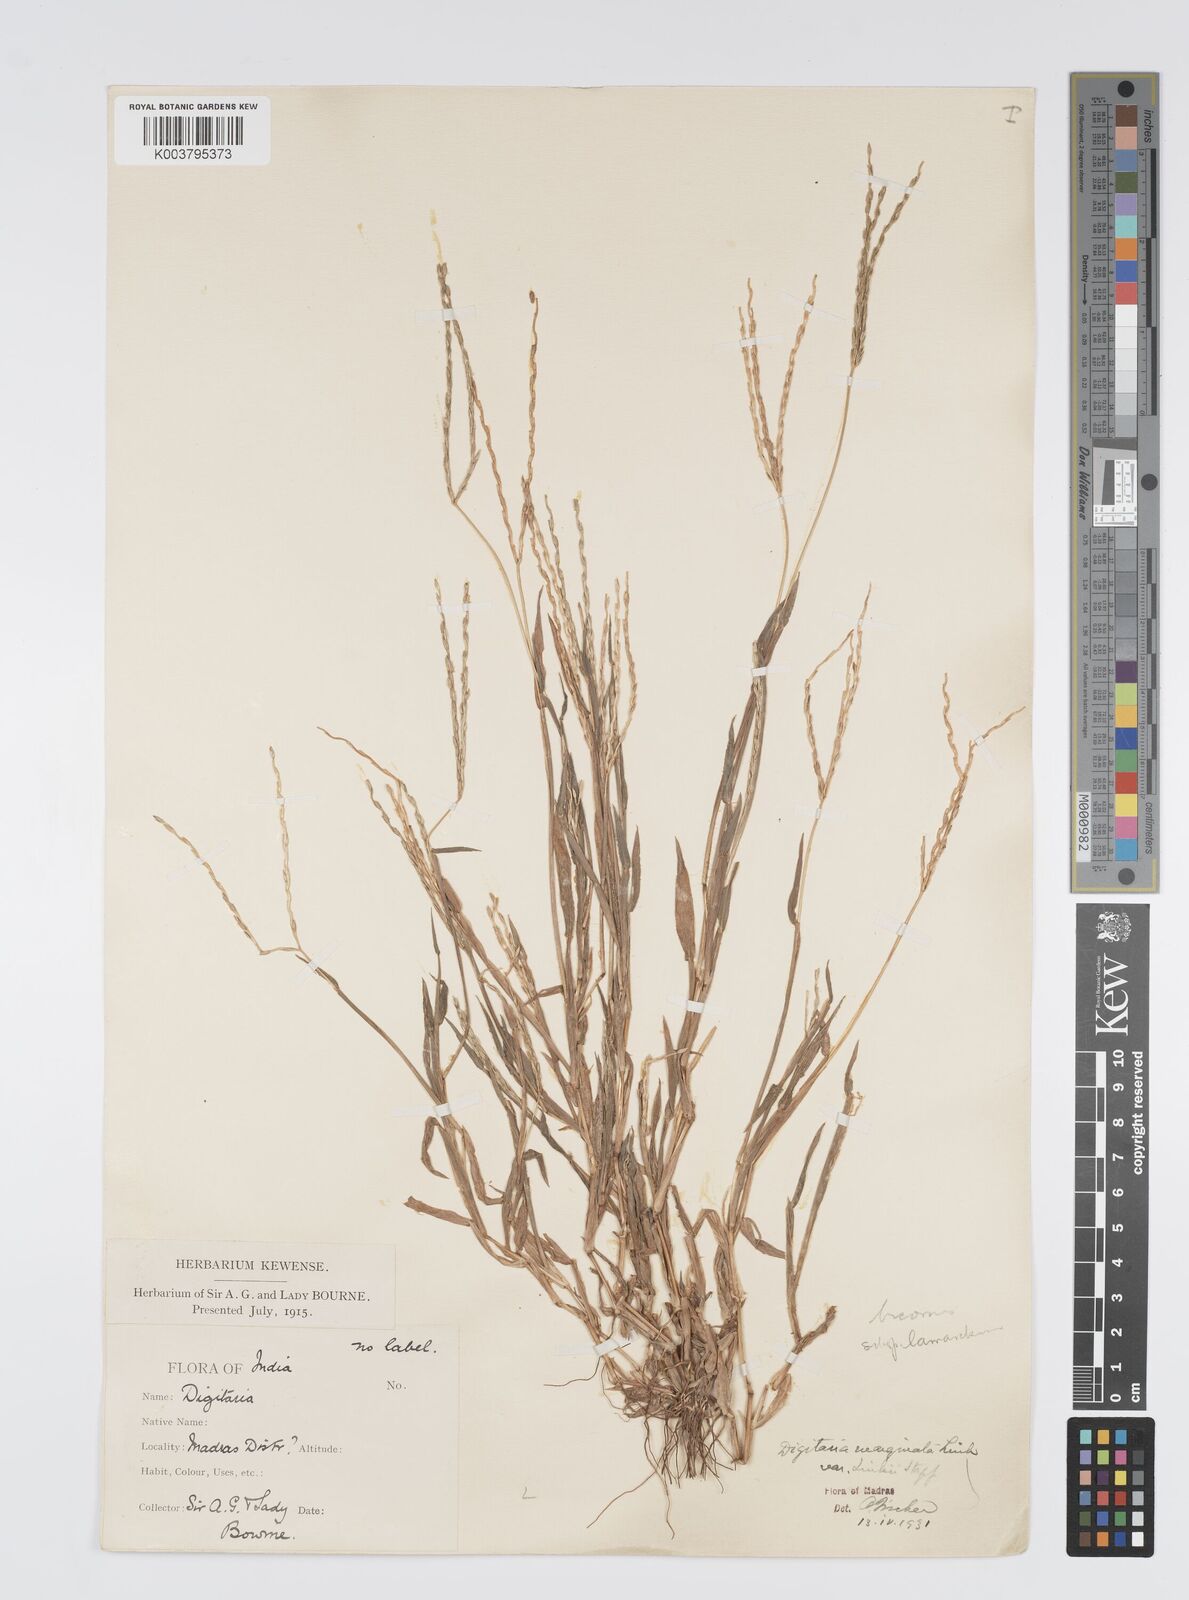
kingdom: Plantae
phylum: Tracheophyta
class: Liliopsida
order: Poales
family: Poaceae
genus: Digitaria
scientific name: Digitaria ciliaris
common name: Tropical finger-grass
